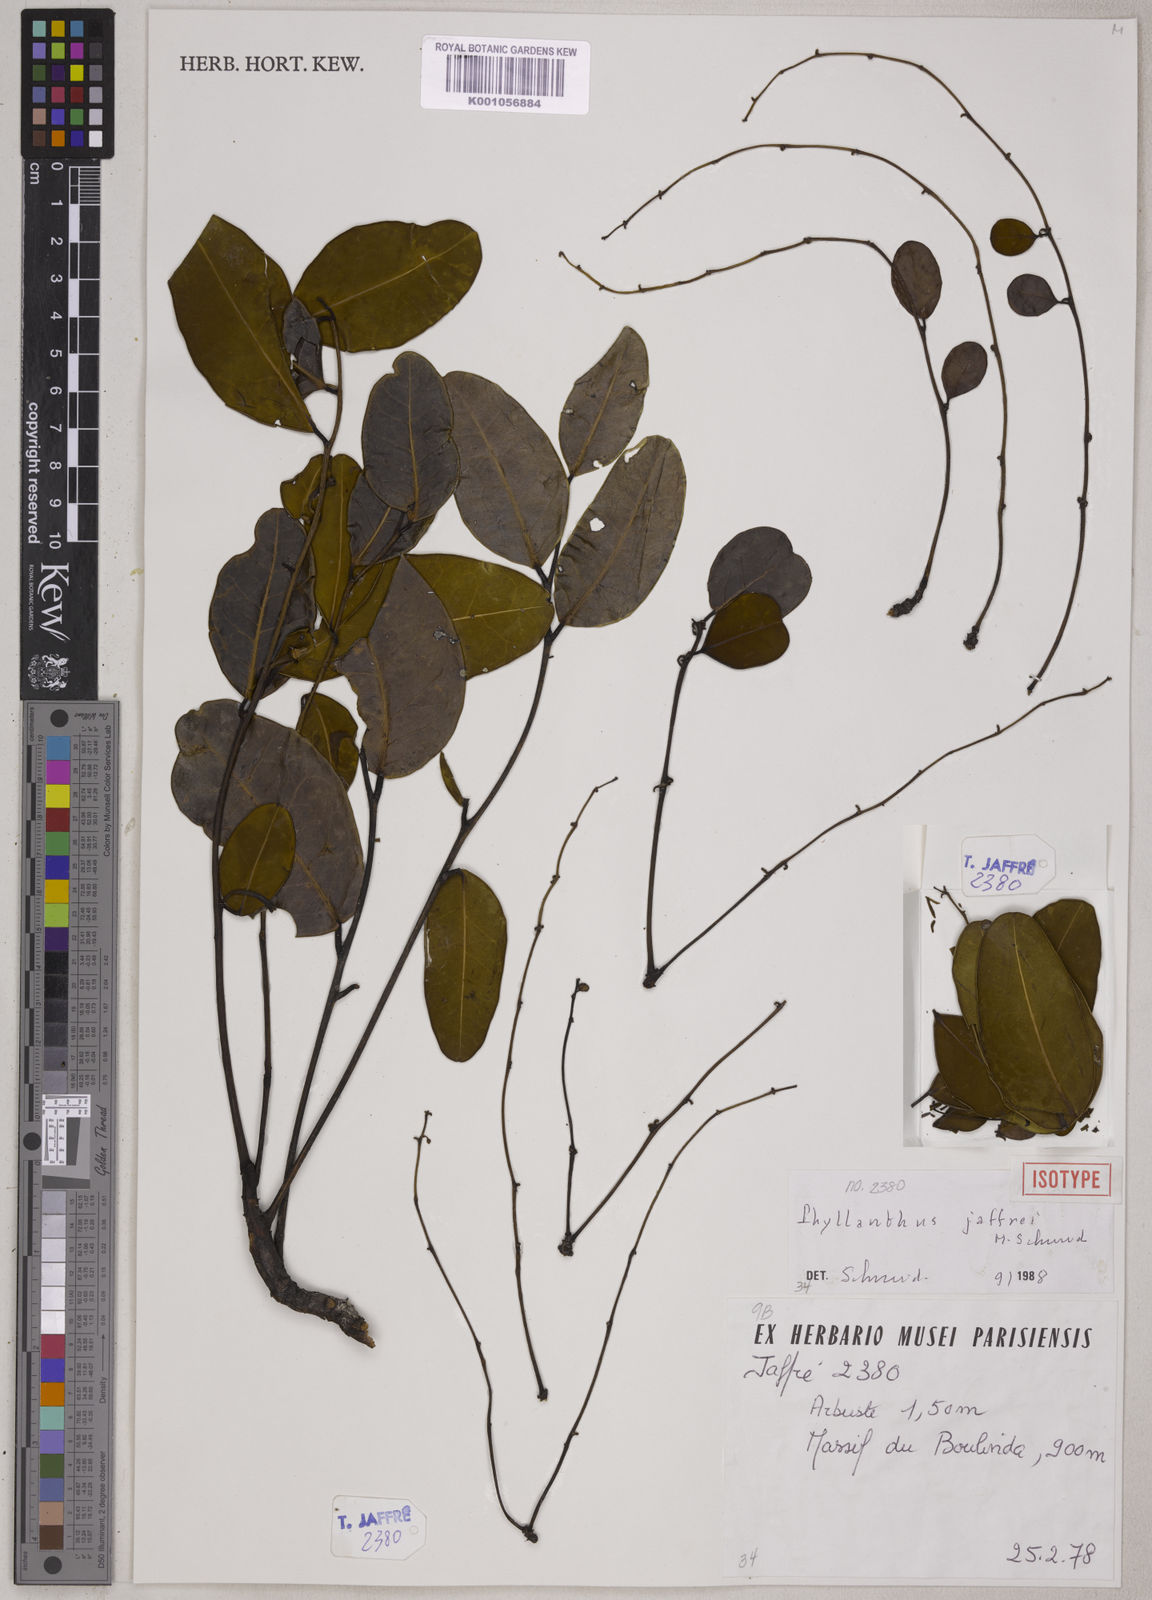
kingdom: Plantae
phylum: Tracheophyta
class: Magnoliopsida
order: Malpighiales
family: Phyllanthaceae
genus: Phyllanthus
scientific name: Phyllanthus jaffrei
